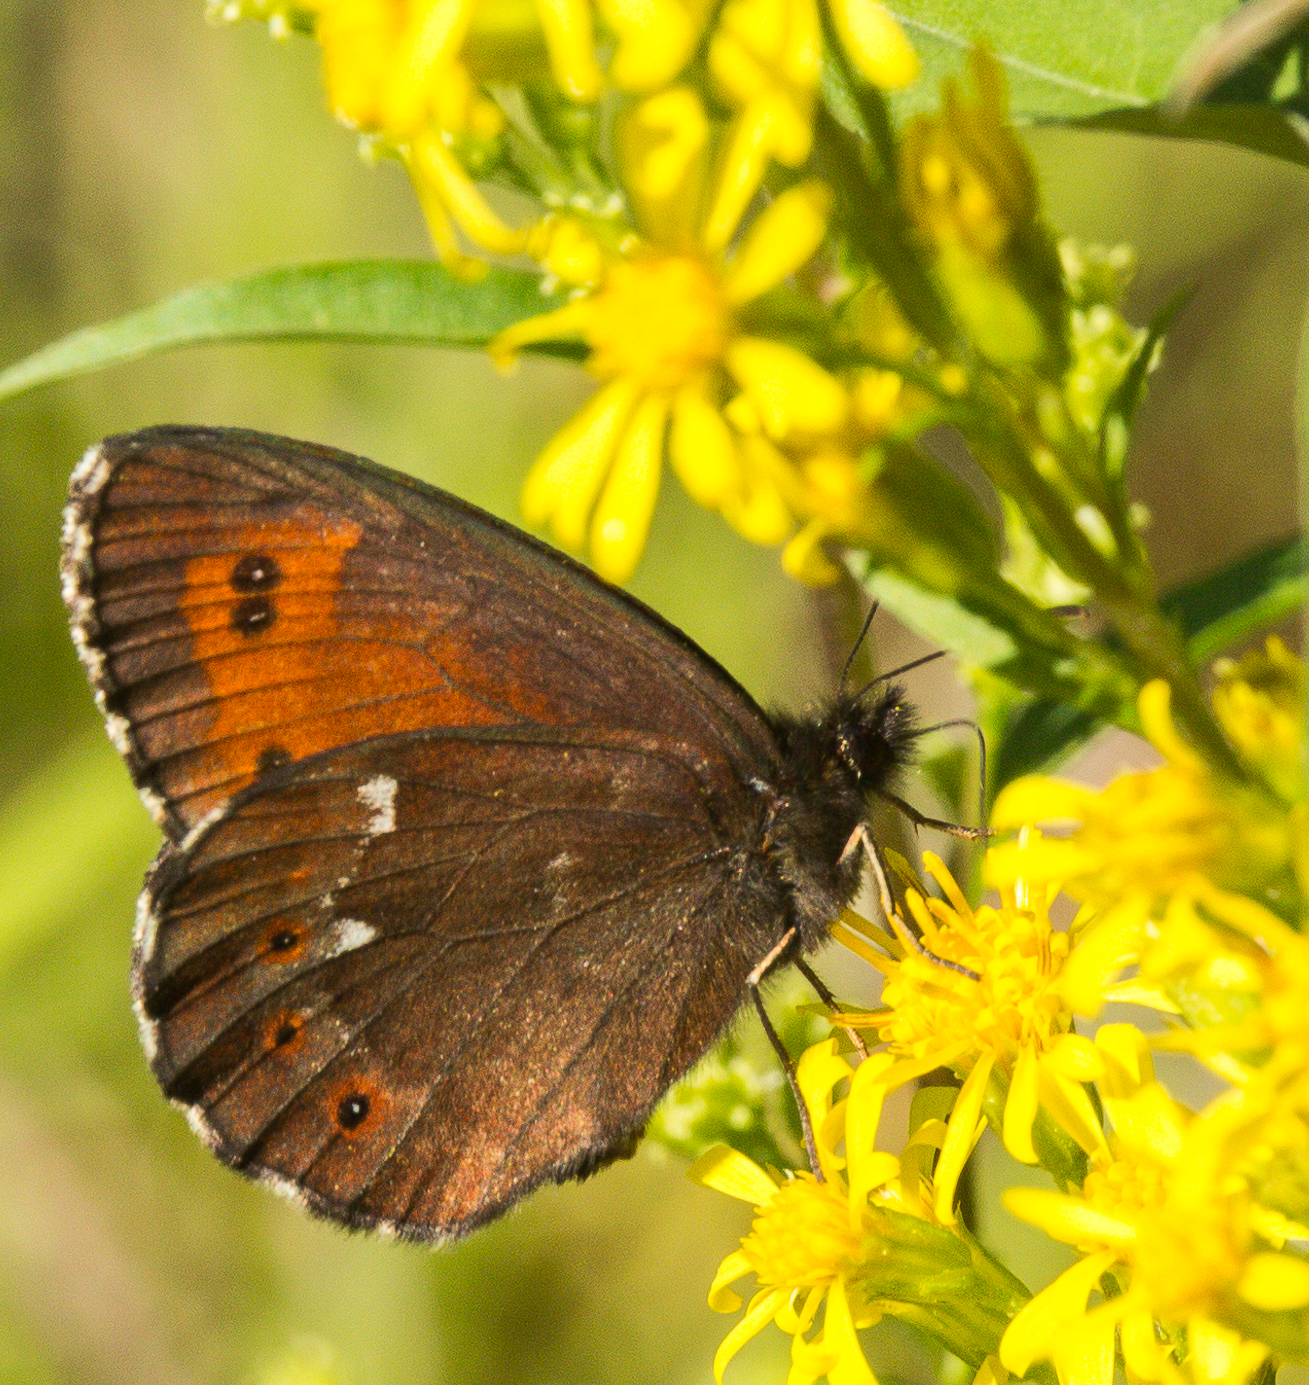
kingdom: Animalia
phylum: Arthropoda
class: Insecta
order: Lepidoptera
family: Nymphalidae
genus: Erebia
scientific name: Erebia ligea
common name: Arran brown
